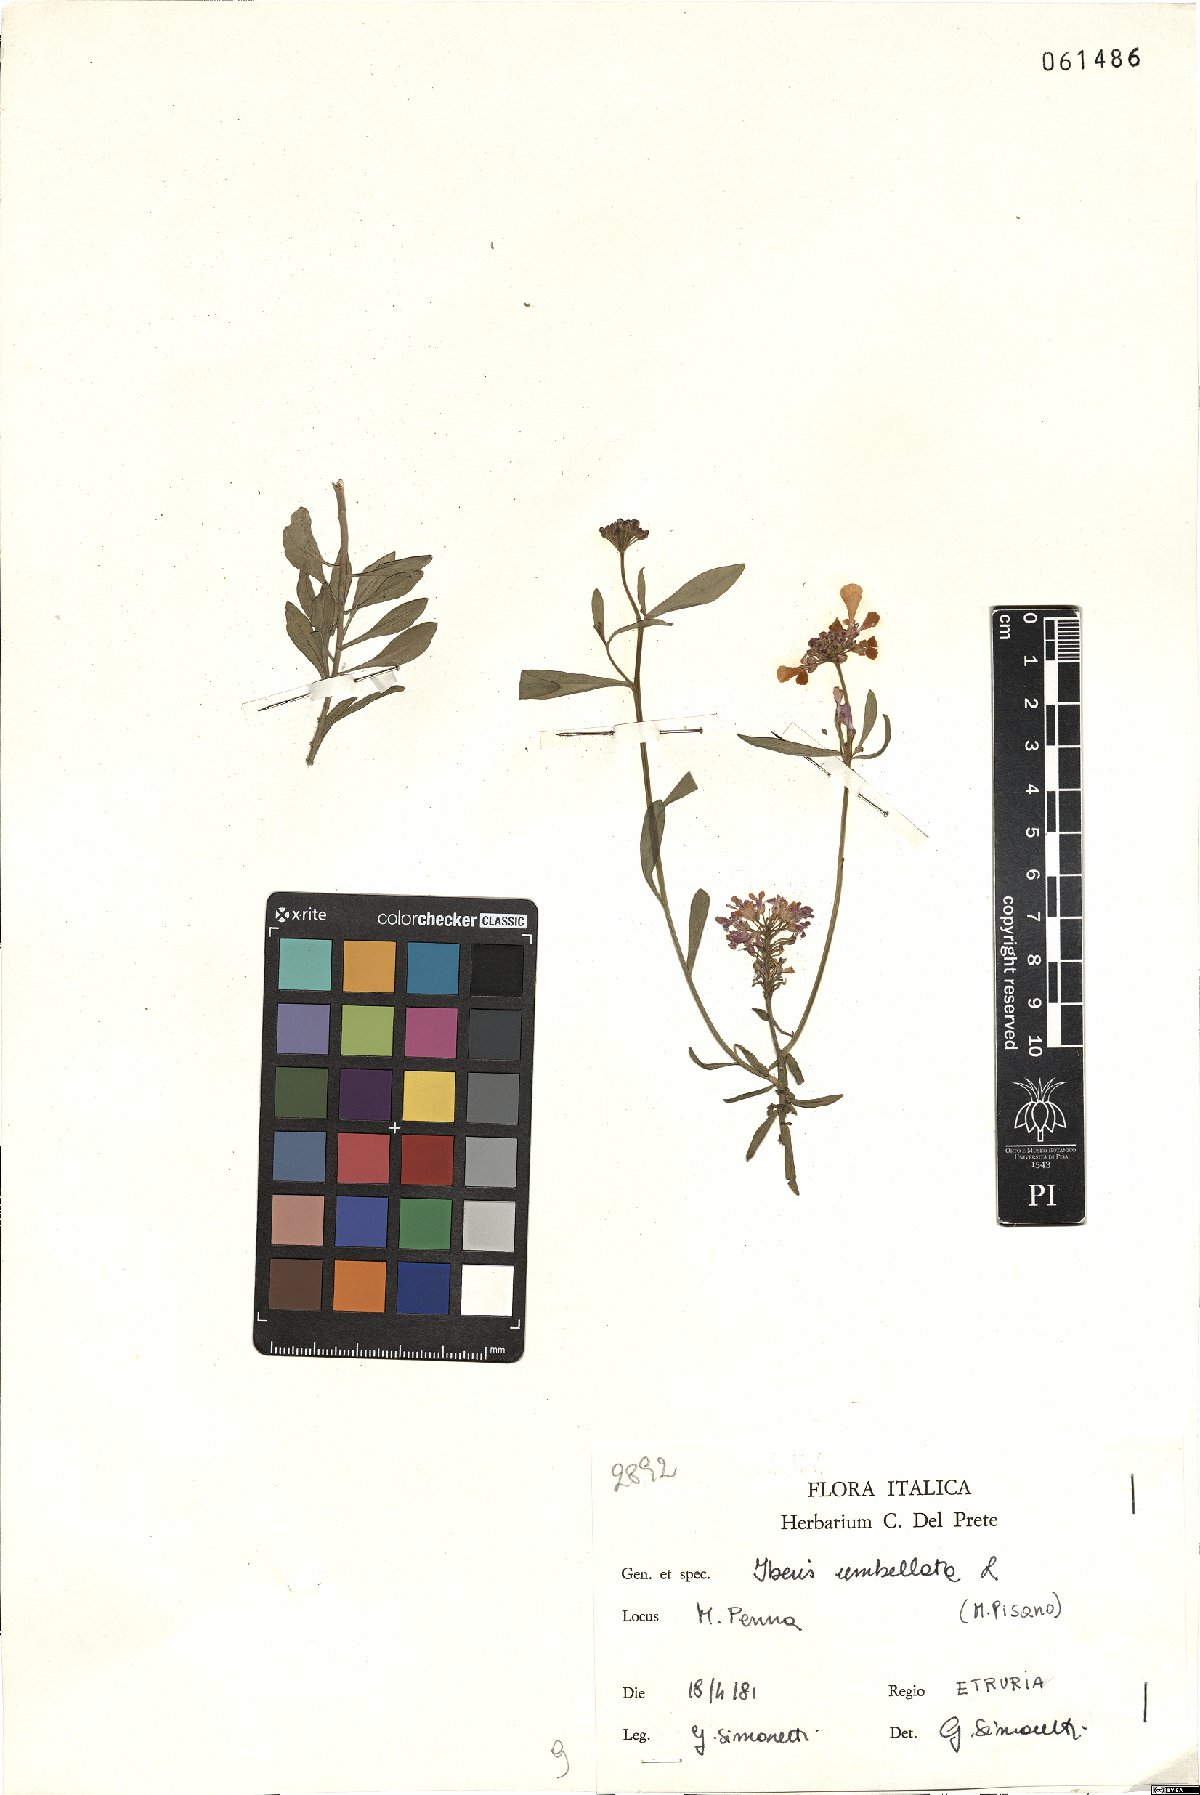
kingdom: Plantae
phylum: Tracheophyta
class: Magnoliopsida
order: Brassicales
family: Brassicaceae
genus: Iberis
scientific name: Iberis umbellata
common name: Globe candytuft
